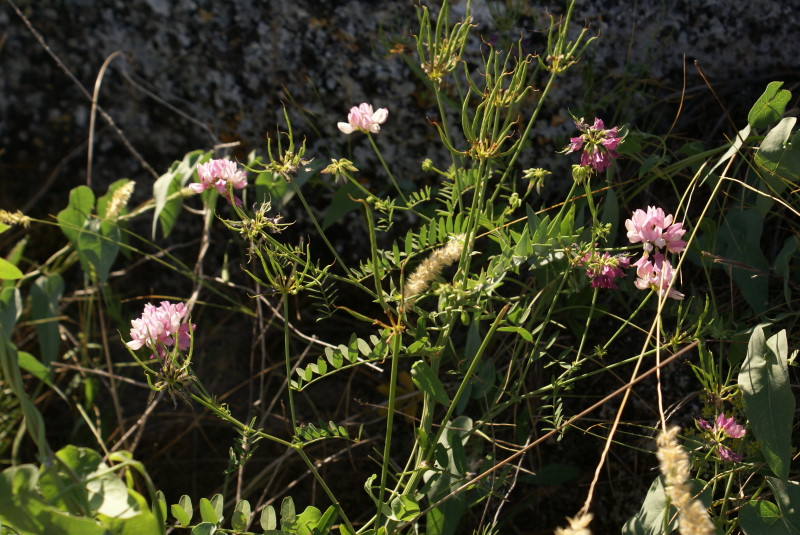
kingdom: Plantae
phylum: Tracheophyta
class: Magnoliopsida
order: Fabales
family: Fabaceae
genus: Coronilla
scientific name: Coronilla varia
